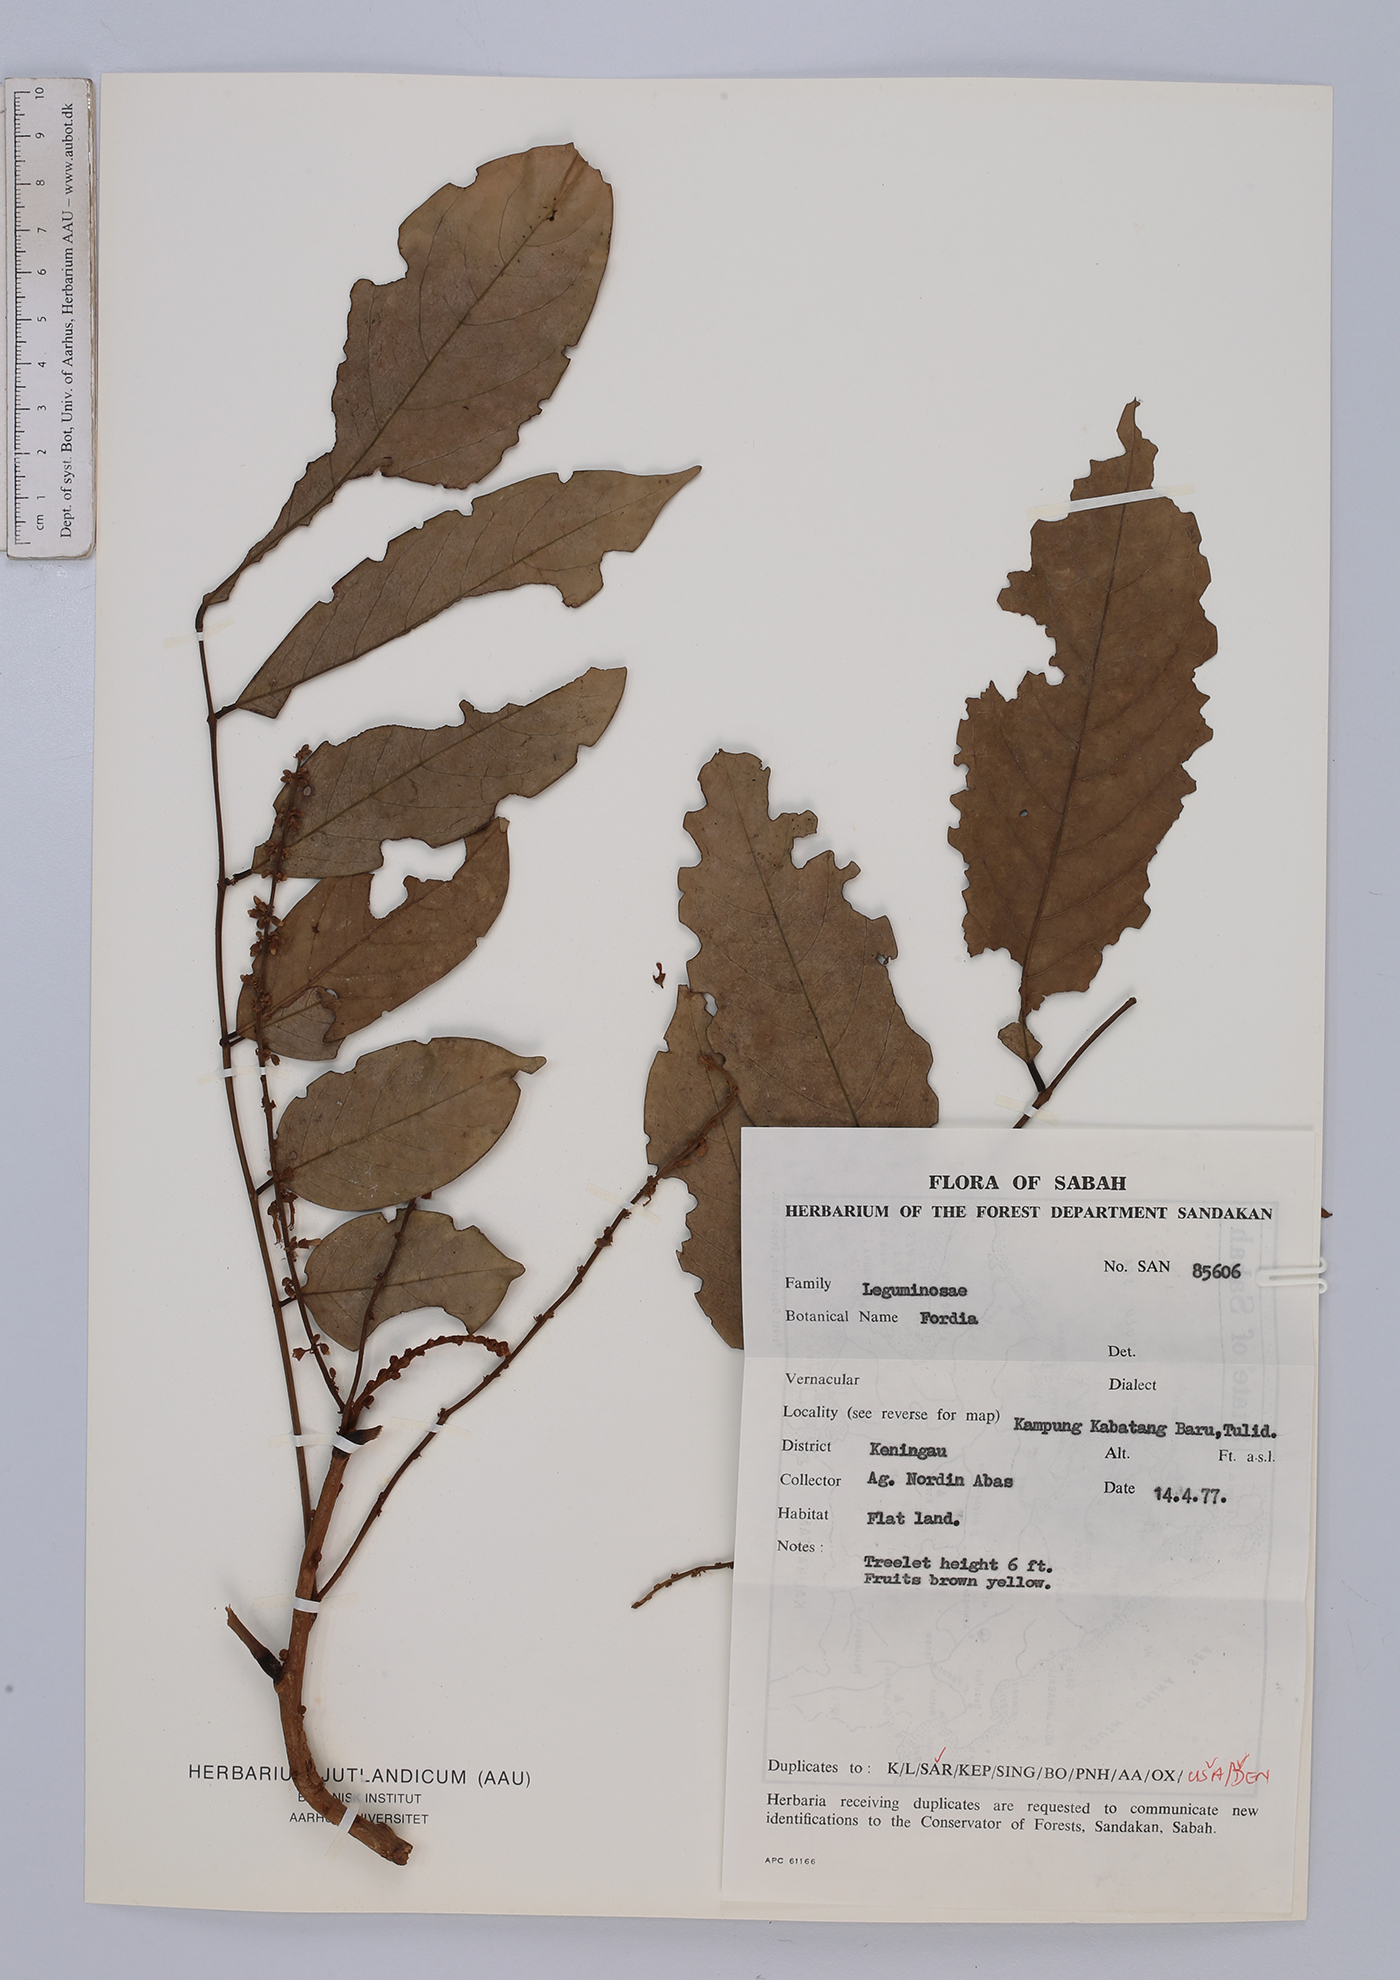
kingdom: Plantae
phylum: Tracheophyta
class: Magnoliopsida
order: Fabales
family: Fabaceae
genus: Fordia
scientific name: Fordia
